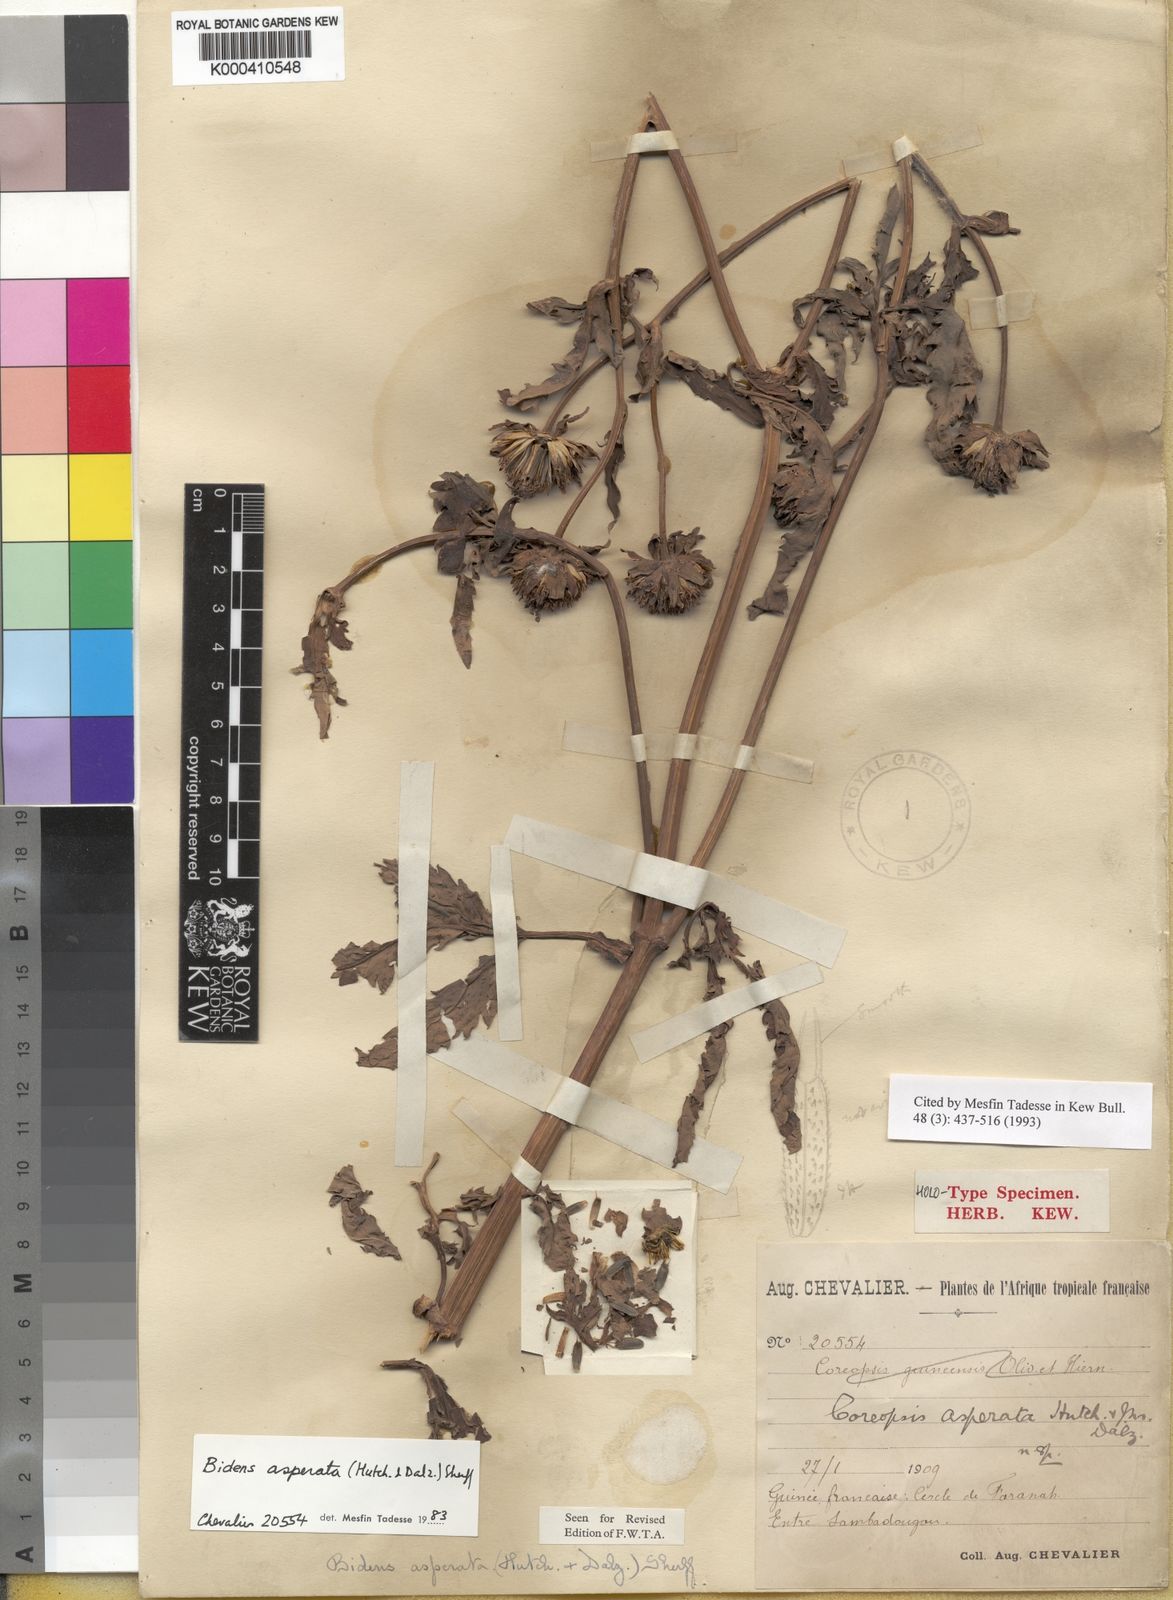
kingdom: Plantae
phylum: Tracheophyta
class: Magnoliopsida
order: Asterales
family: Asteraceae
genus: Bidens
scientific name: Bidens asperata
